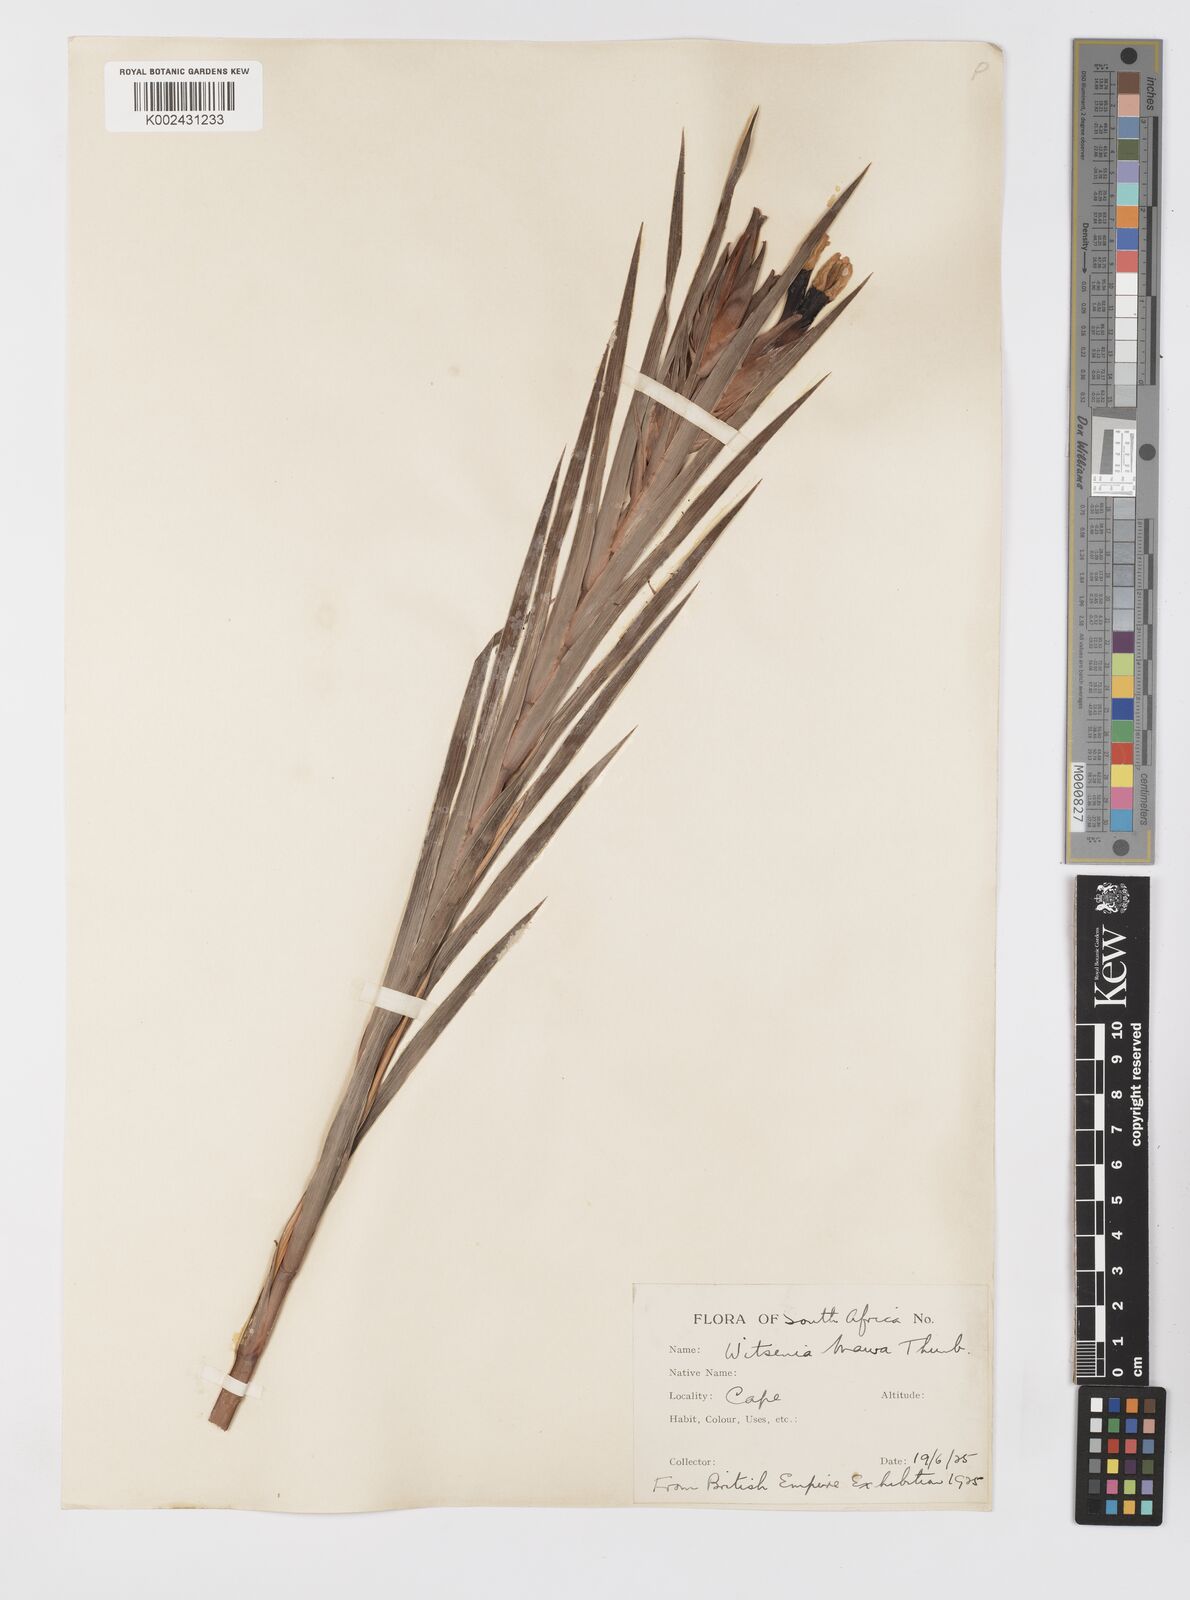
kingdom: Plantae
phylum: Tracheophyta
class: Liliopsida
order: Asparagales
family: Iridaceae
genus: Witsenia
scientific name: Witsenia maura
